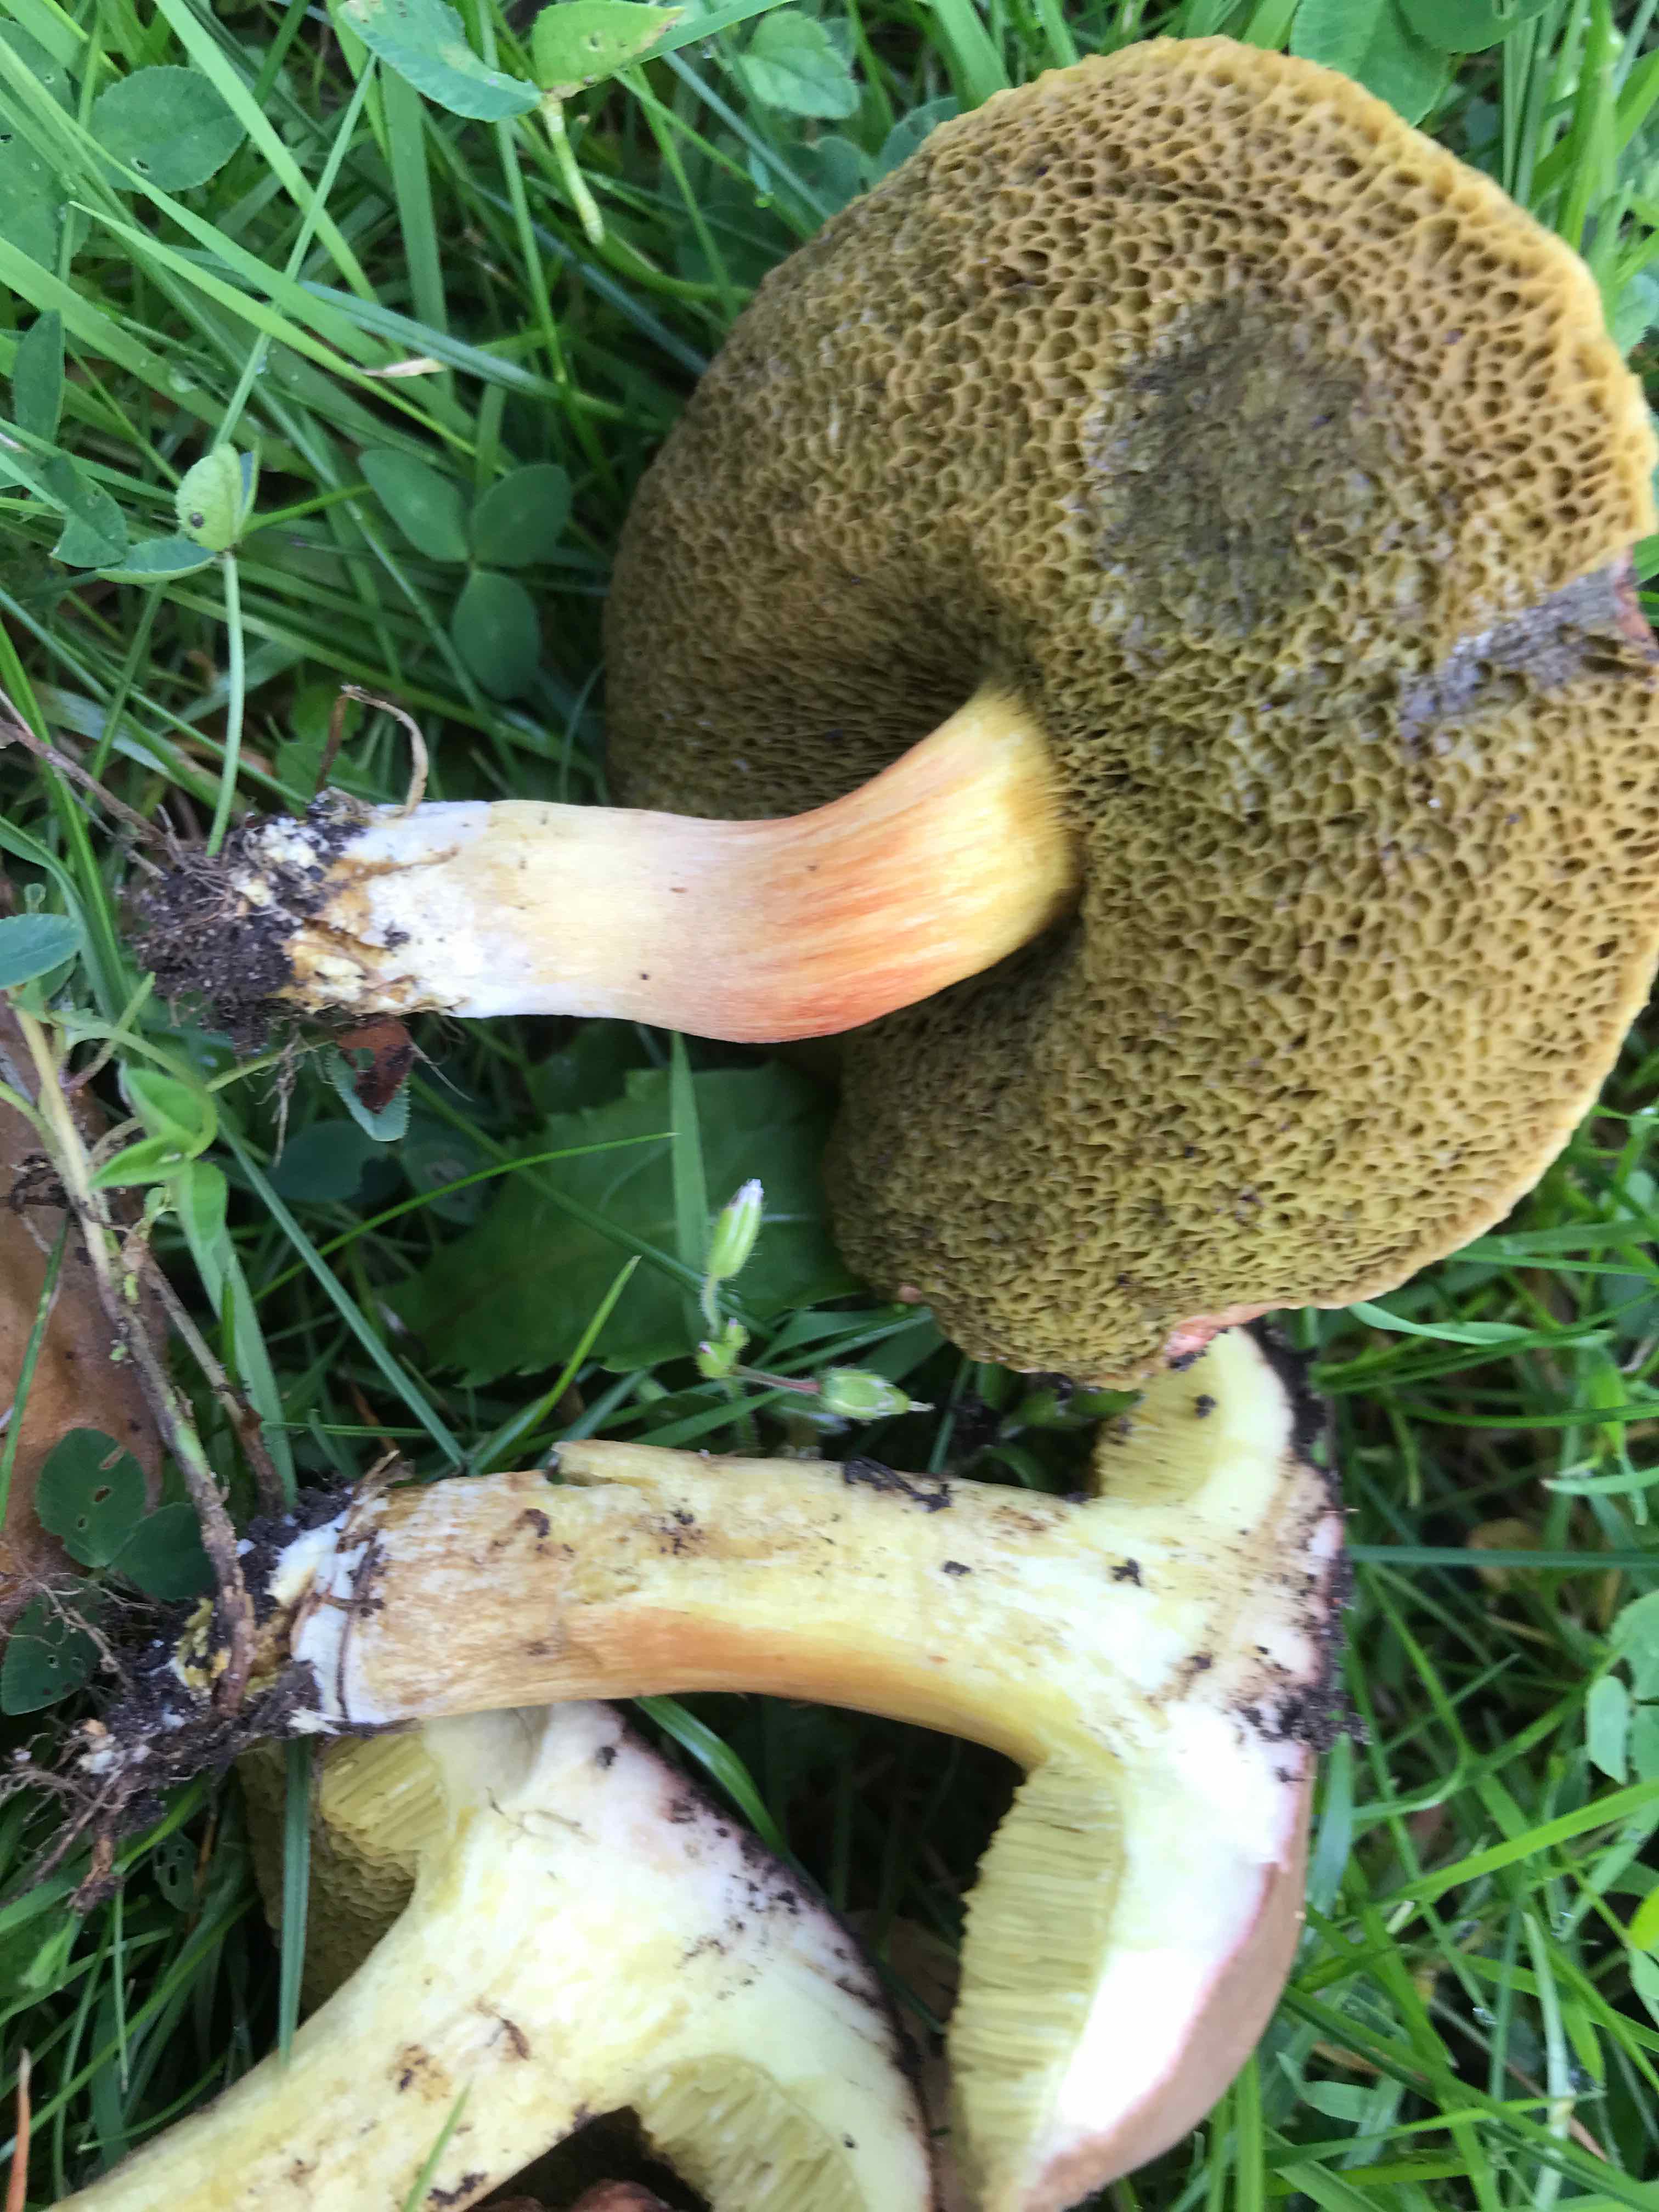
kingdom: Fungi
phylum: Basidiomycota
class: Agaricomycetes
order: Boletales
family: Boletaceae
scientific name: Boletaceae
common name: rørhatfamilien
